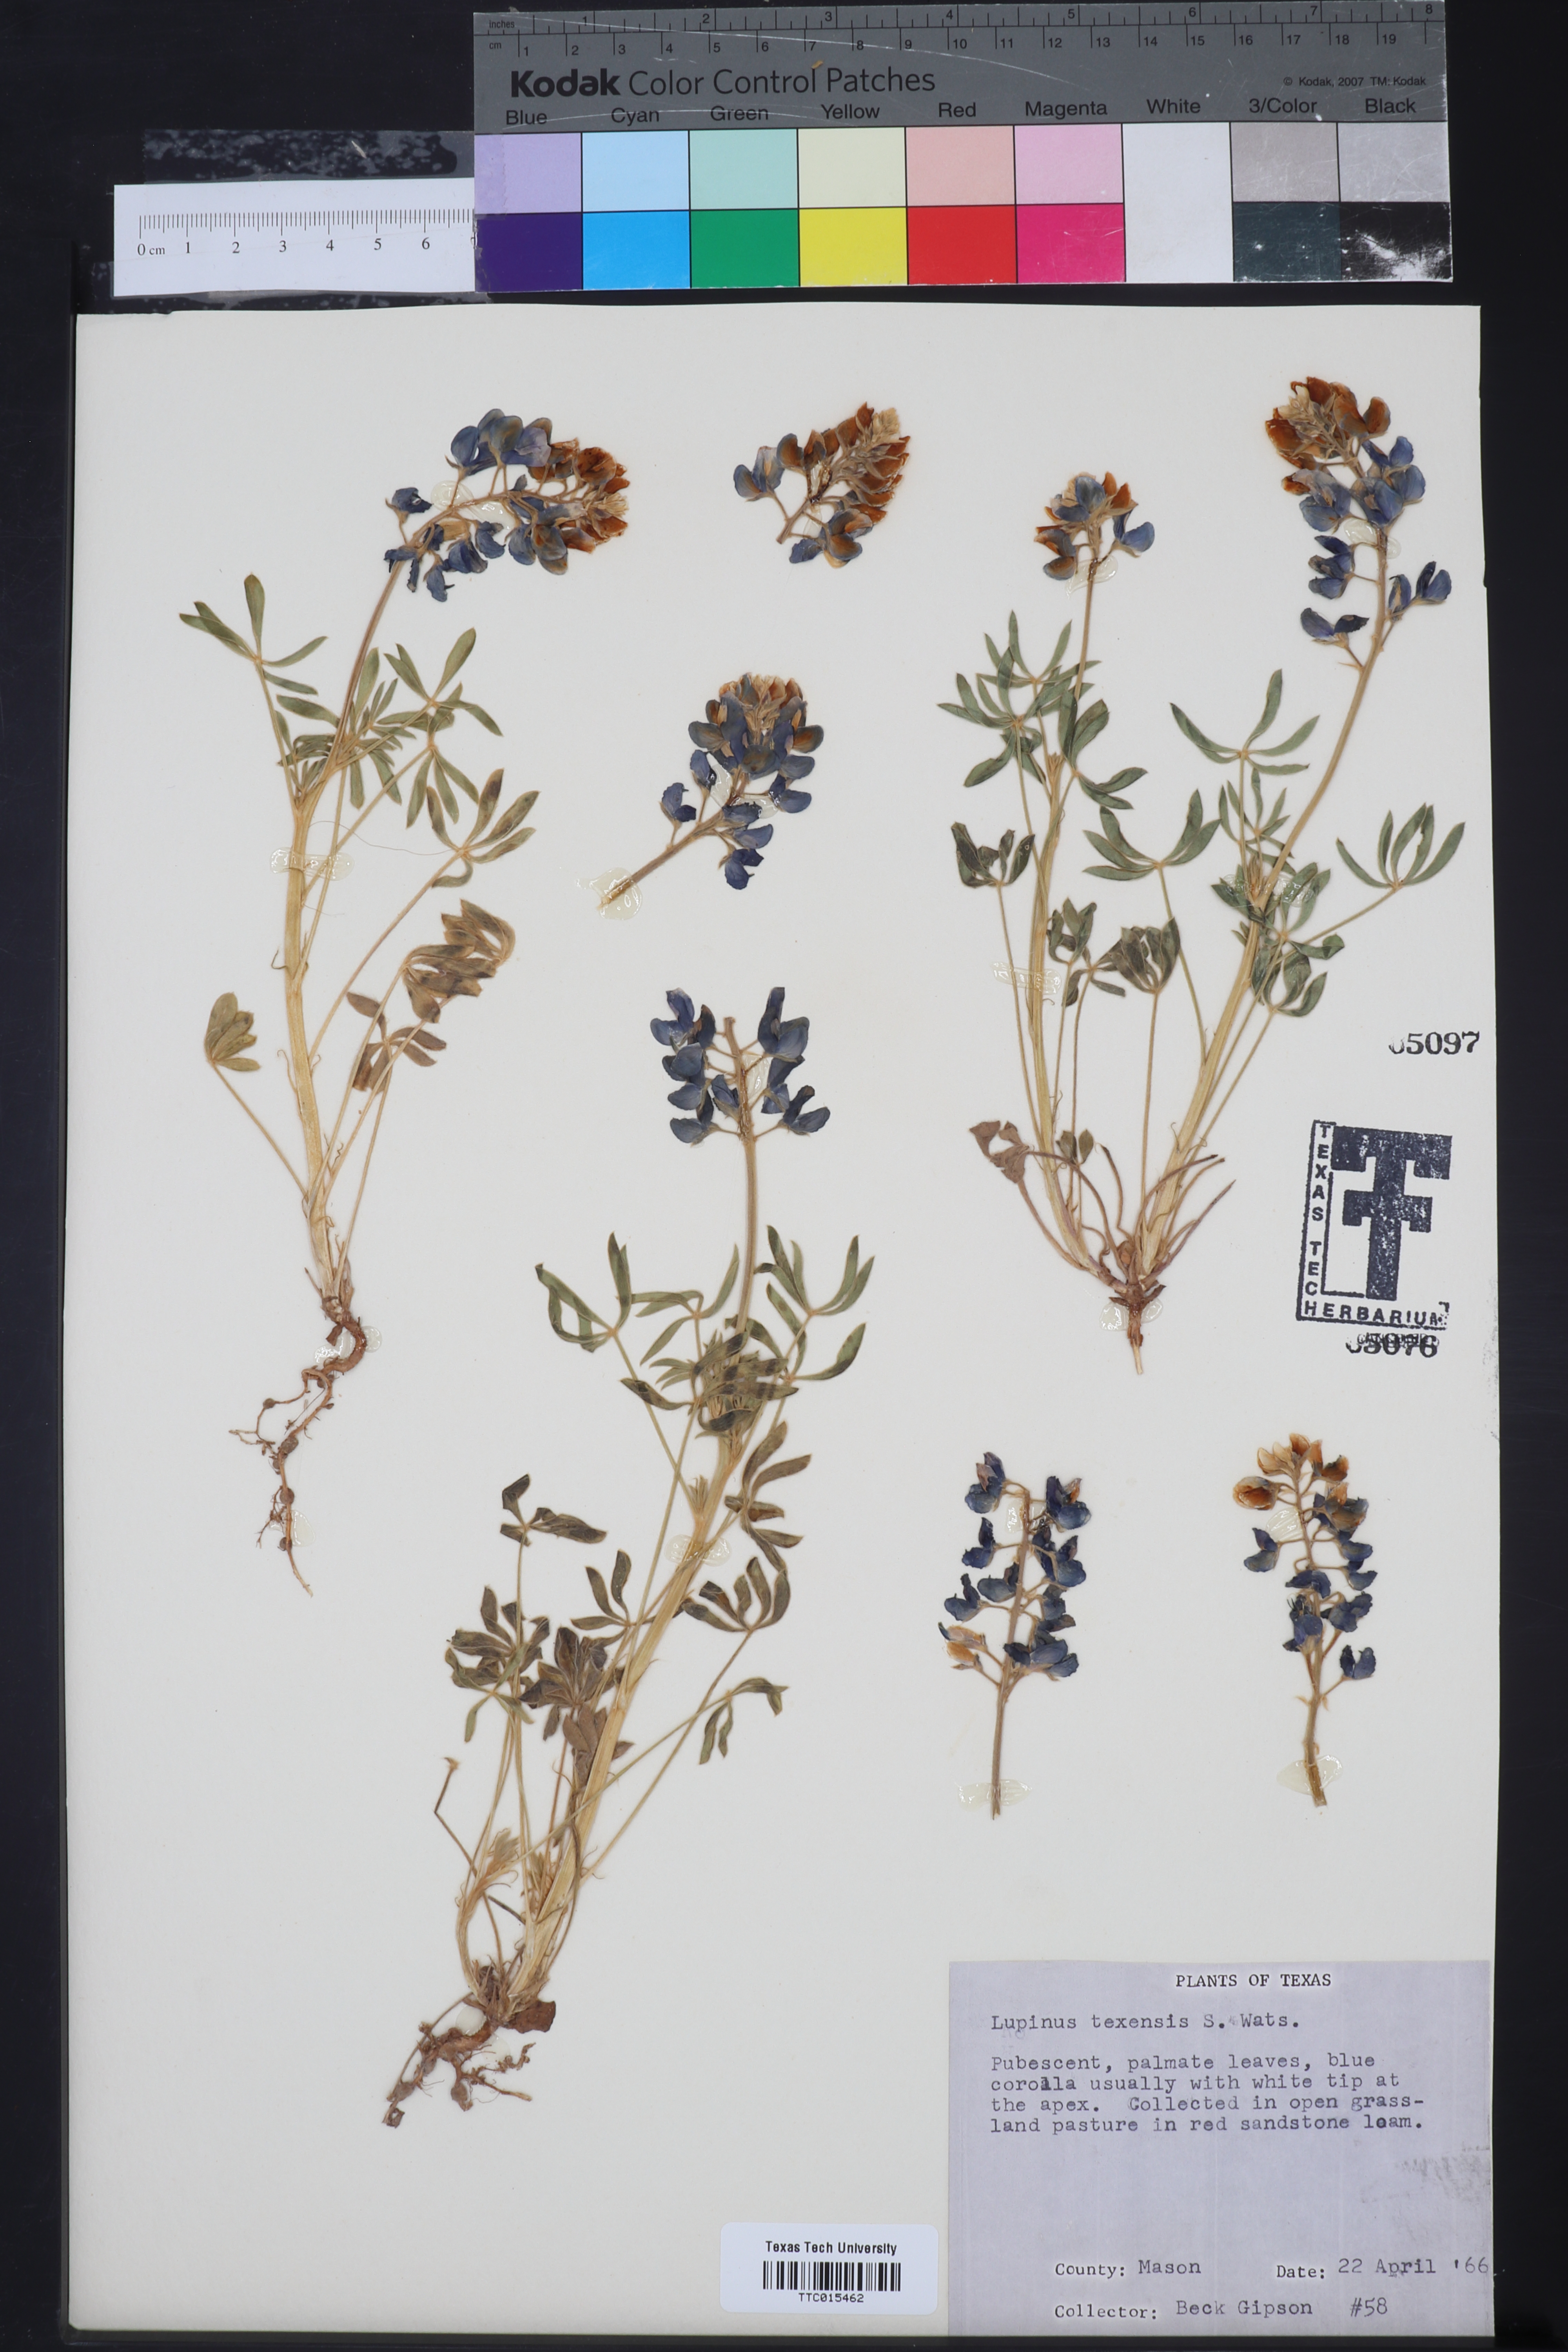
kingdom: Plantae
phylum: Tracheophyta
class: Magnoliopsida
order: Fabales
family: Fabaceae
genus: Lupinus
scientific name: Lupinus texensis
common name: Texas bluebonnet
